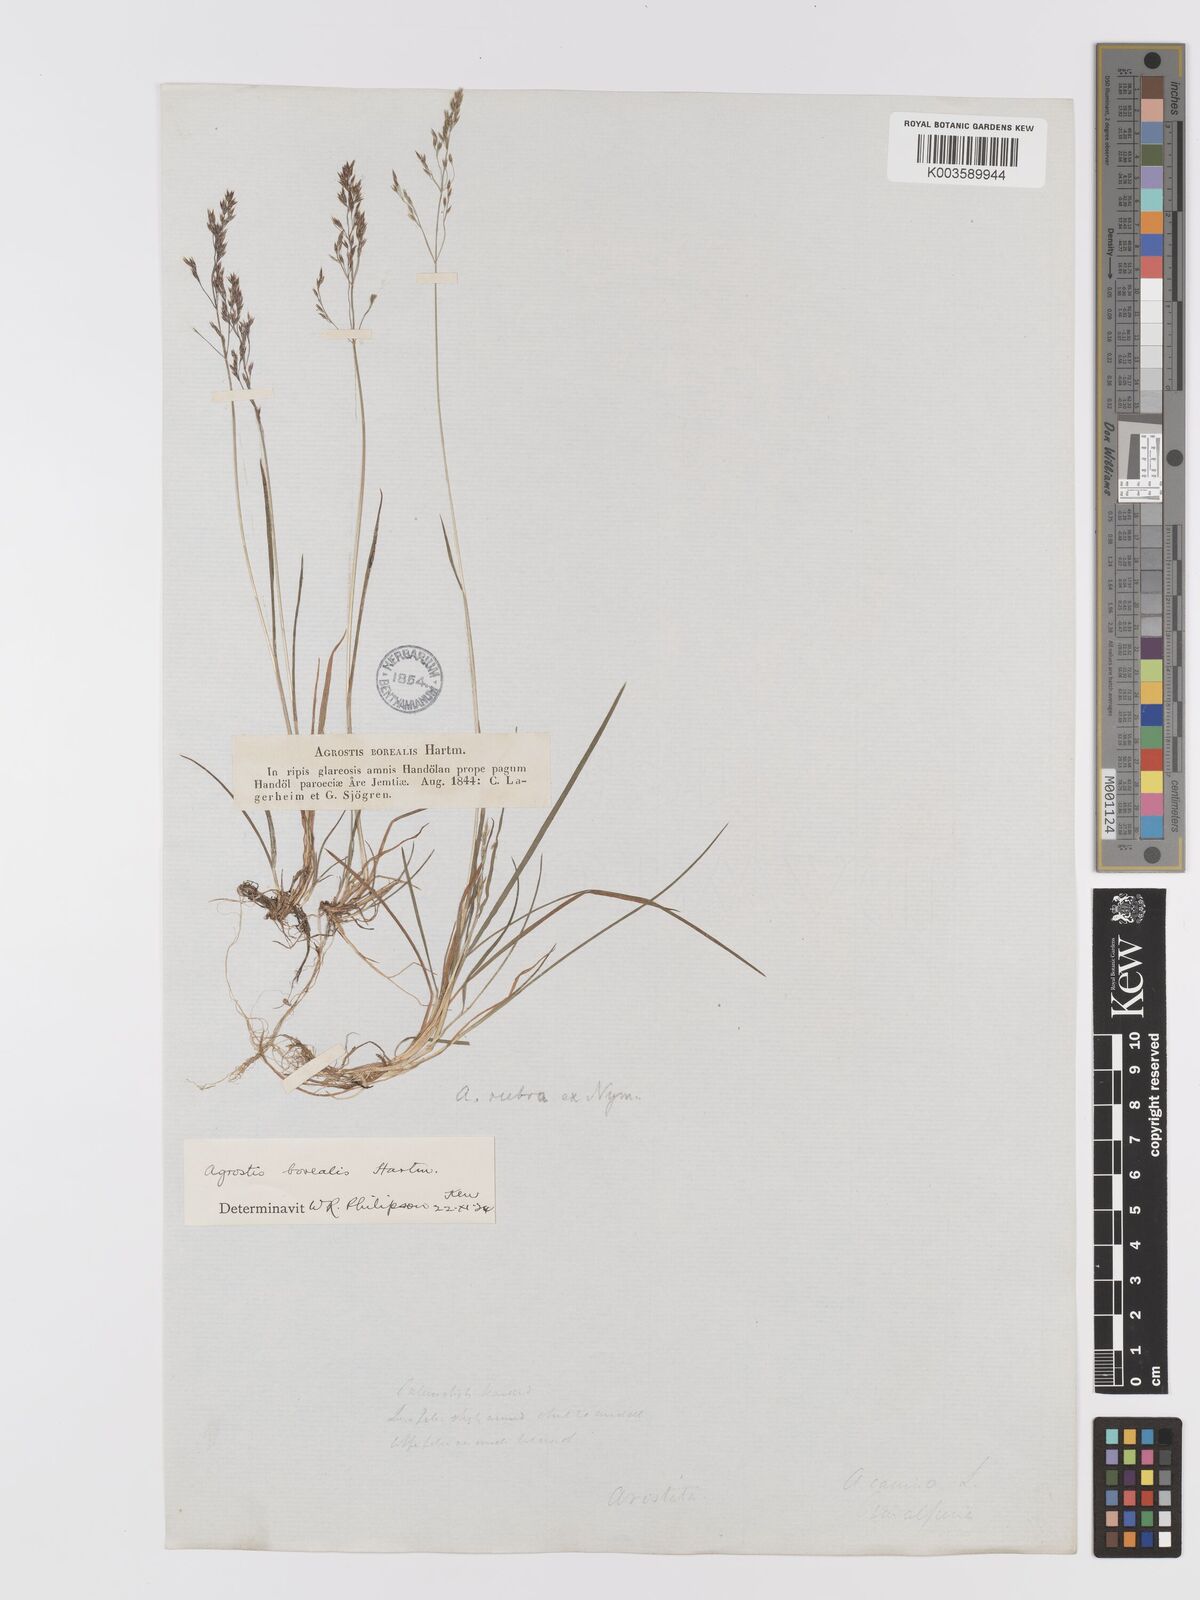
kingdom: Plantae
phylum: Tracheophyta
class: Liliopsida
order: Poales
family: Poaceae
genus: Agrostis
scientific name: Agrostis mertensii
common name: Northern bent
